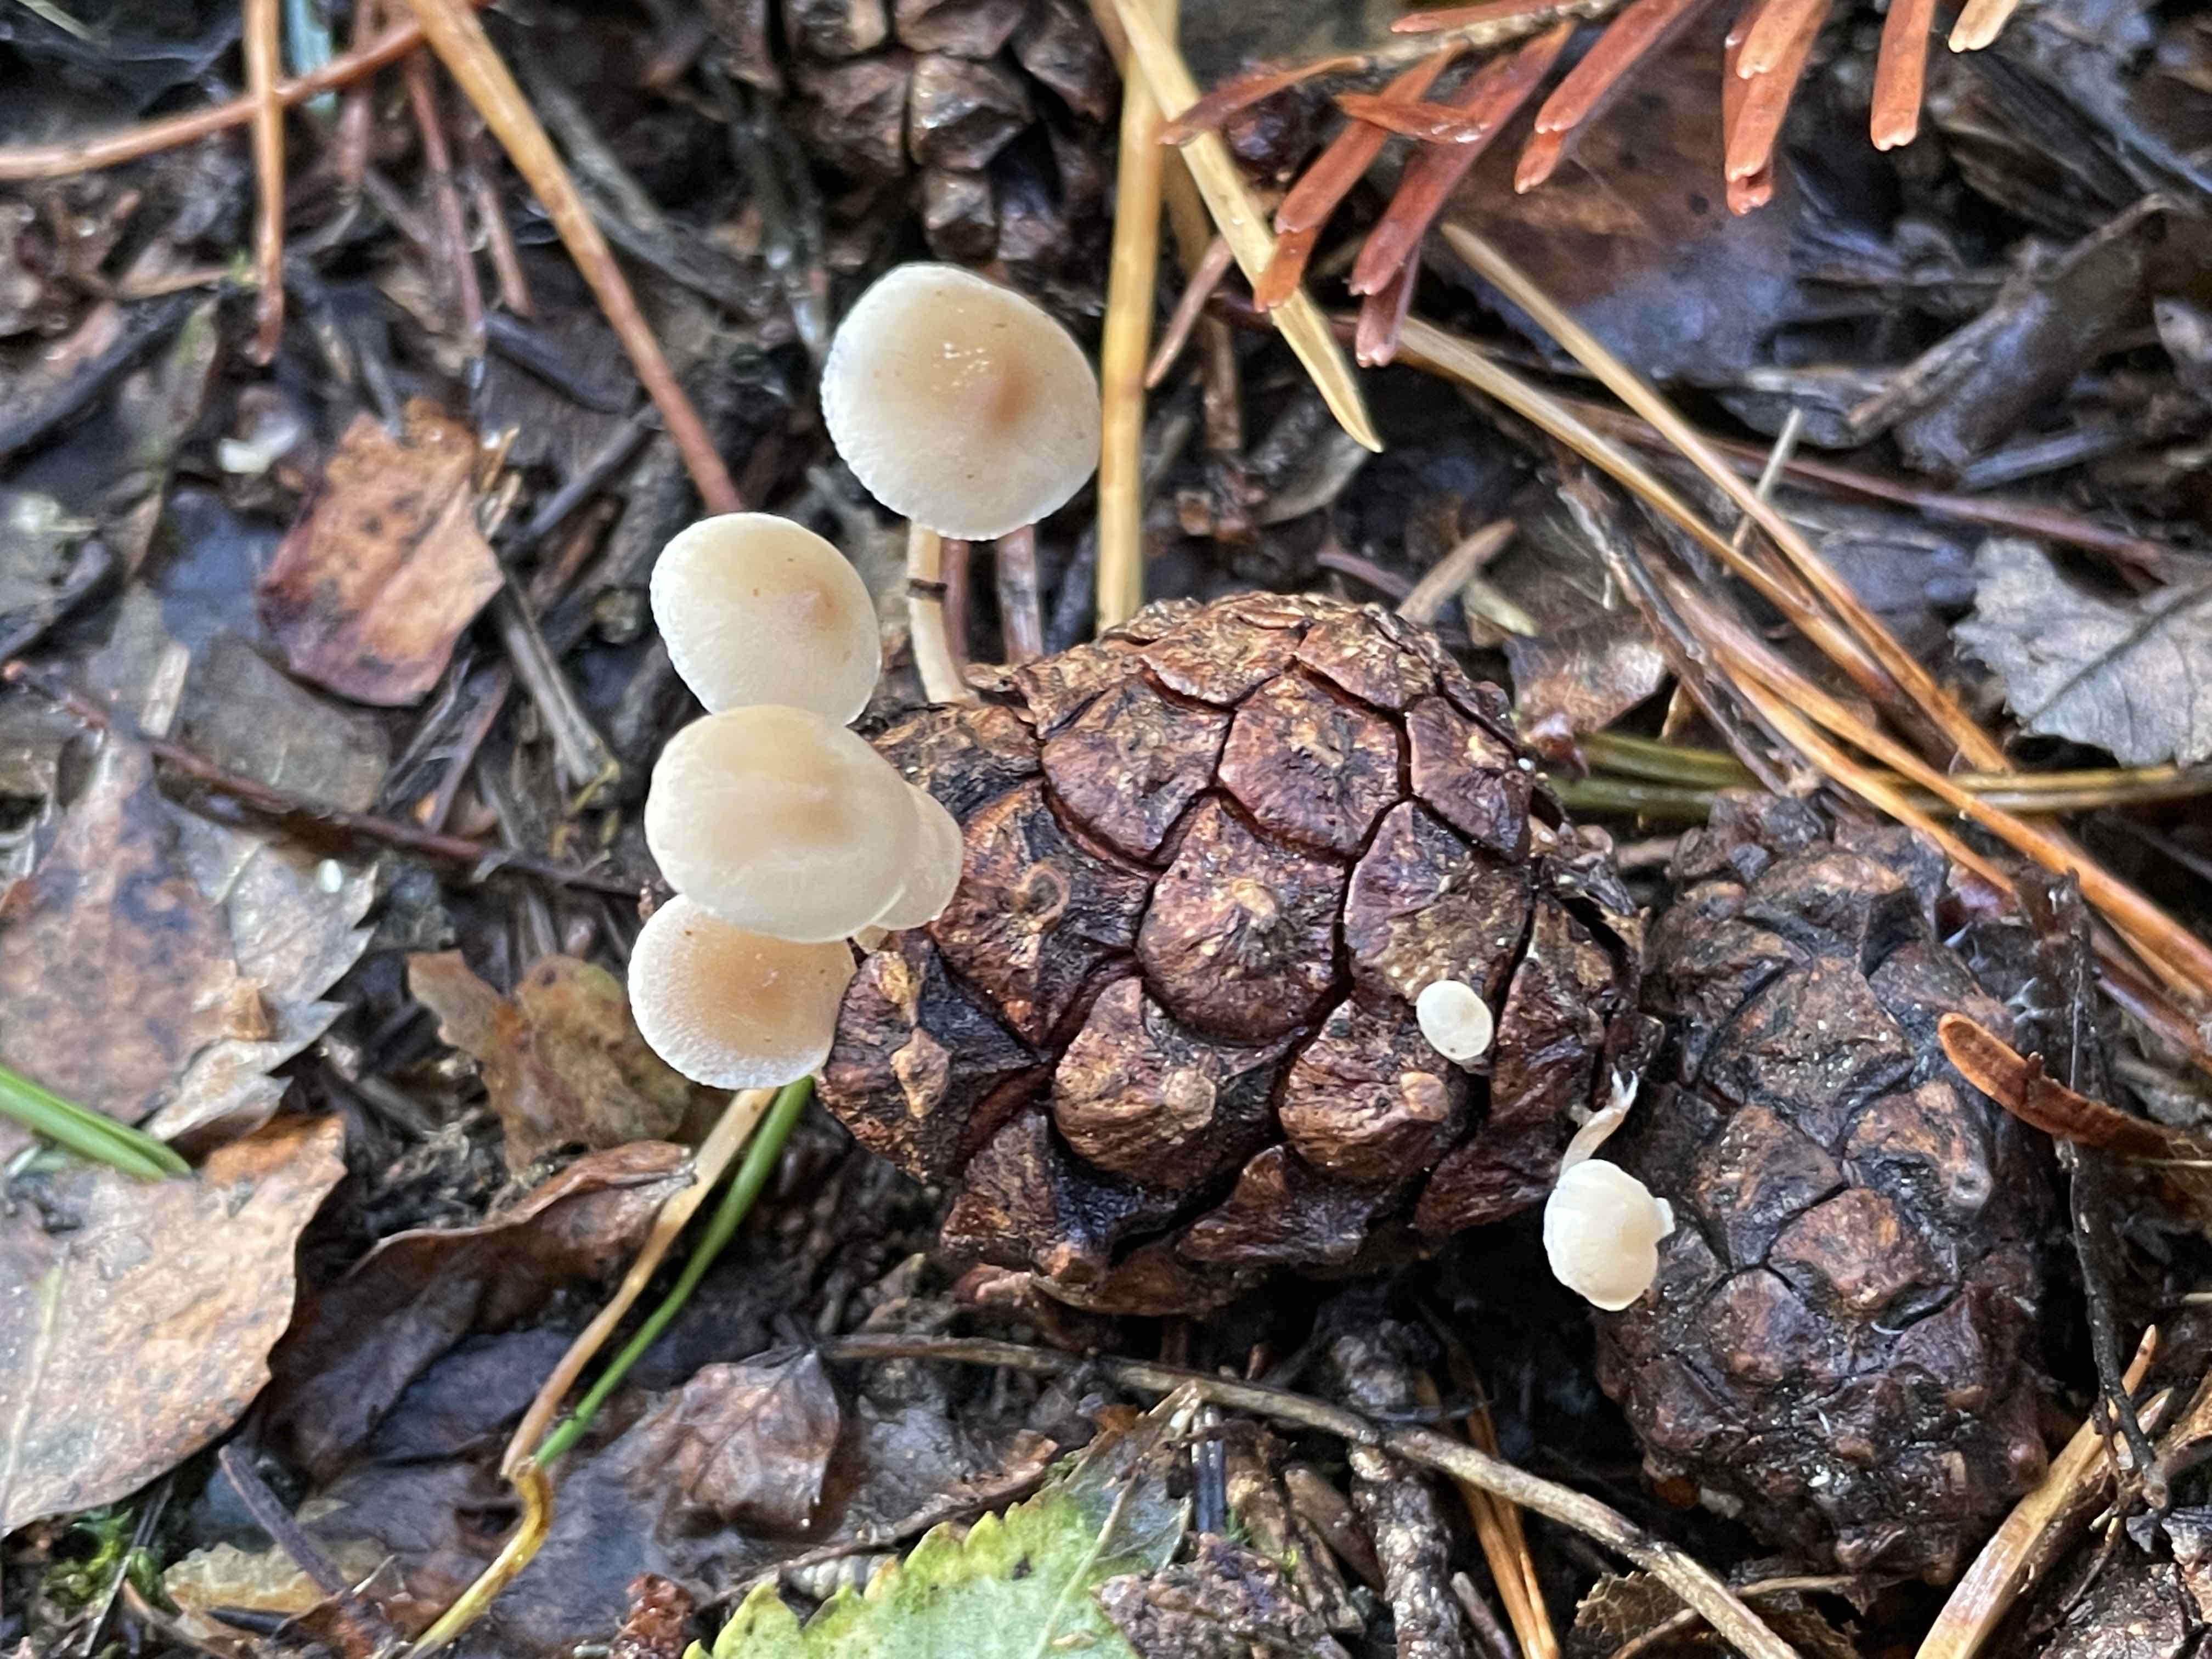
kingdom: Fungi
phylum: Basidiomycota
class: Agaricomycetes
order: Agaricales
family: Marasmiaceae
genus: Baeospora
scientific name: Baeospora myosura
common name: koglebruskhat
